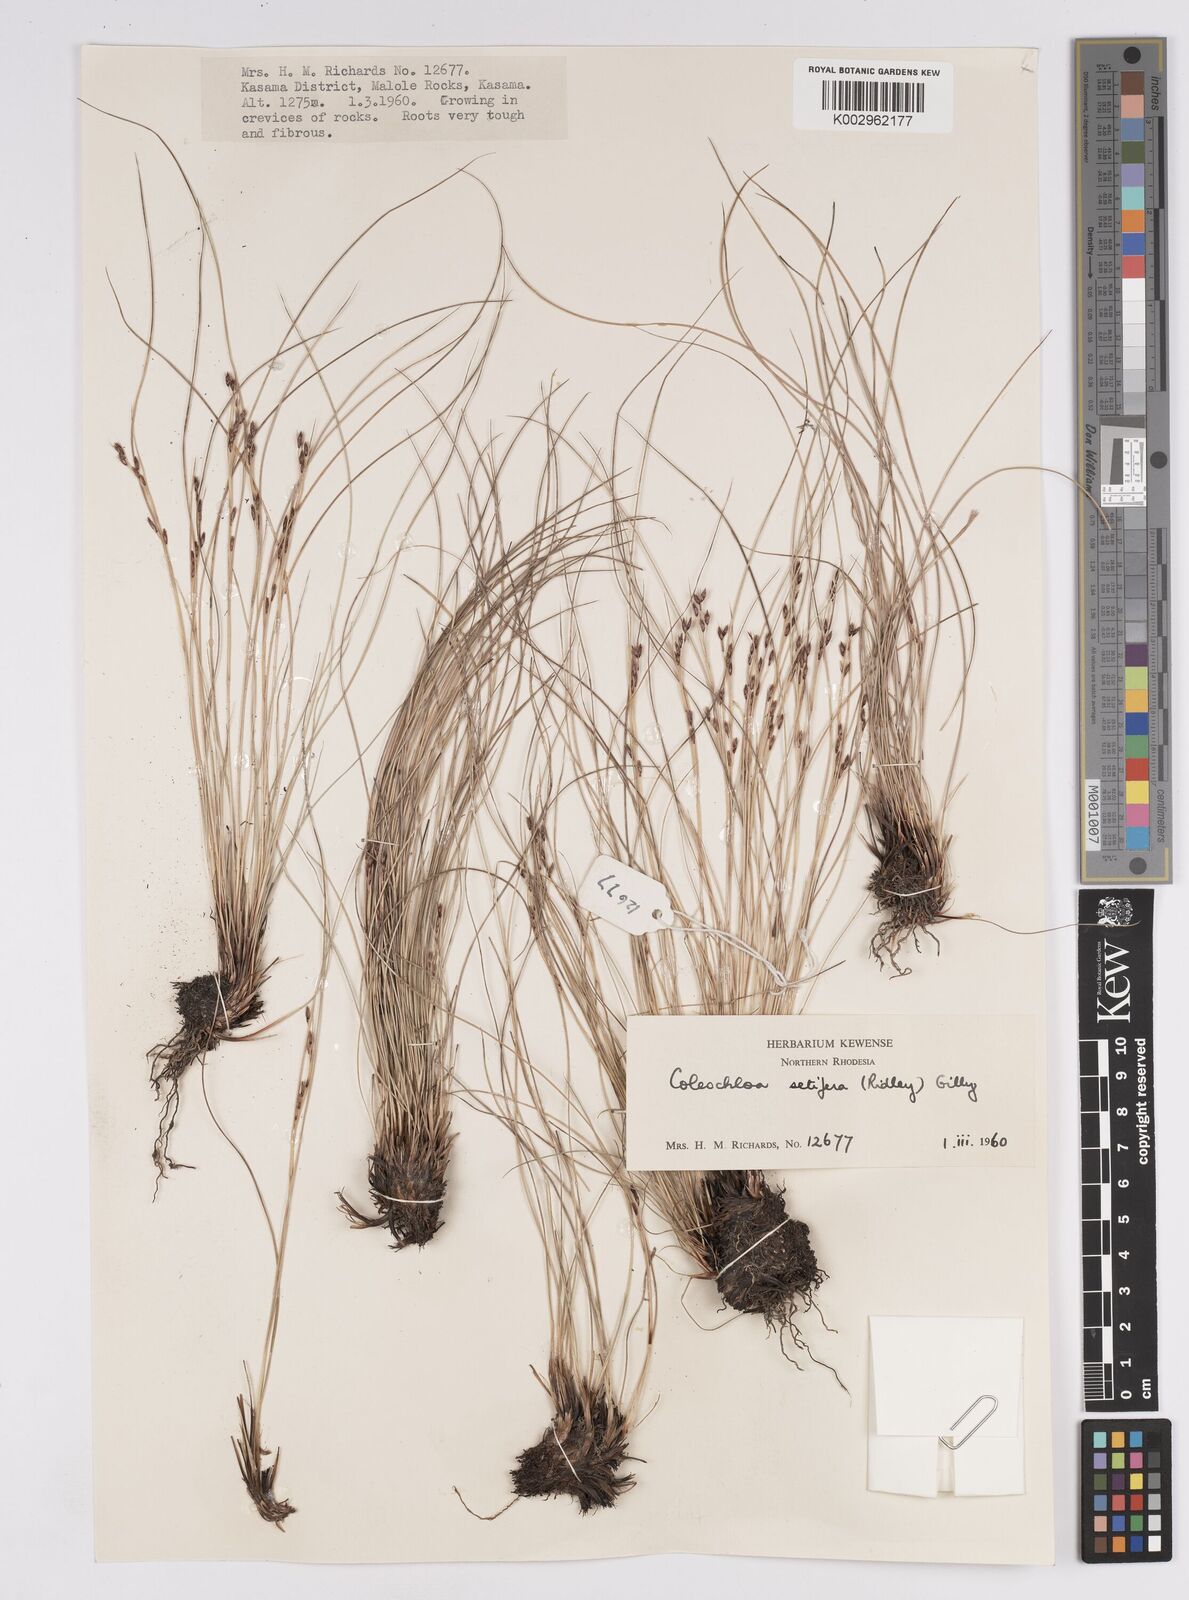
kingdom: Plantae
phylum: Tracheophyta
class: Liliopsida
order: Poales
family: Cyperaceae
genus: Coleochloa
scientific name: Coleochloa setifera
